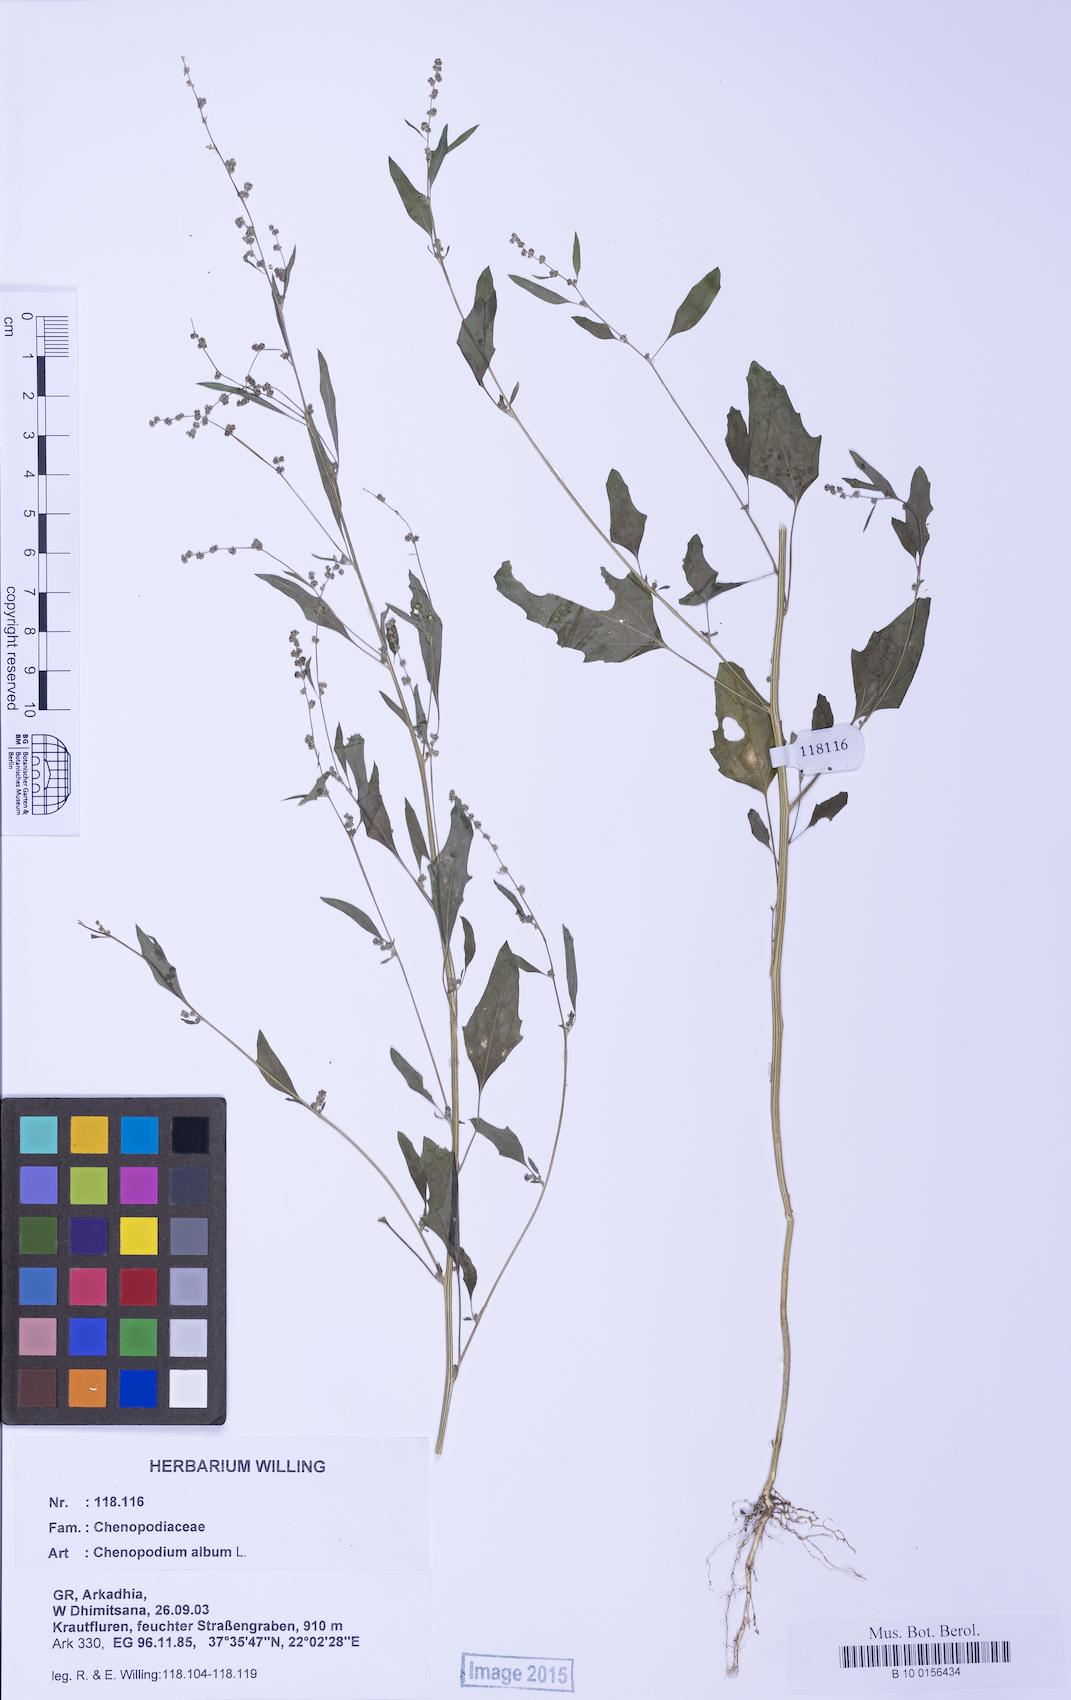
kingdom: Plantae
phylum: Tracheophyta
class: Magnoliopsida
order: Caryophyllales
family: Amaranthaceae
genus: Chenopodium
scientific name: Chenopodium album
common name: Fat-hen
